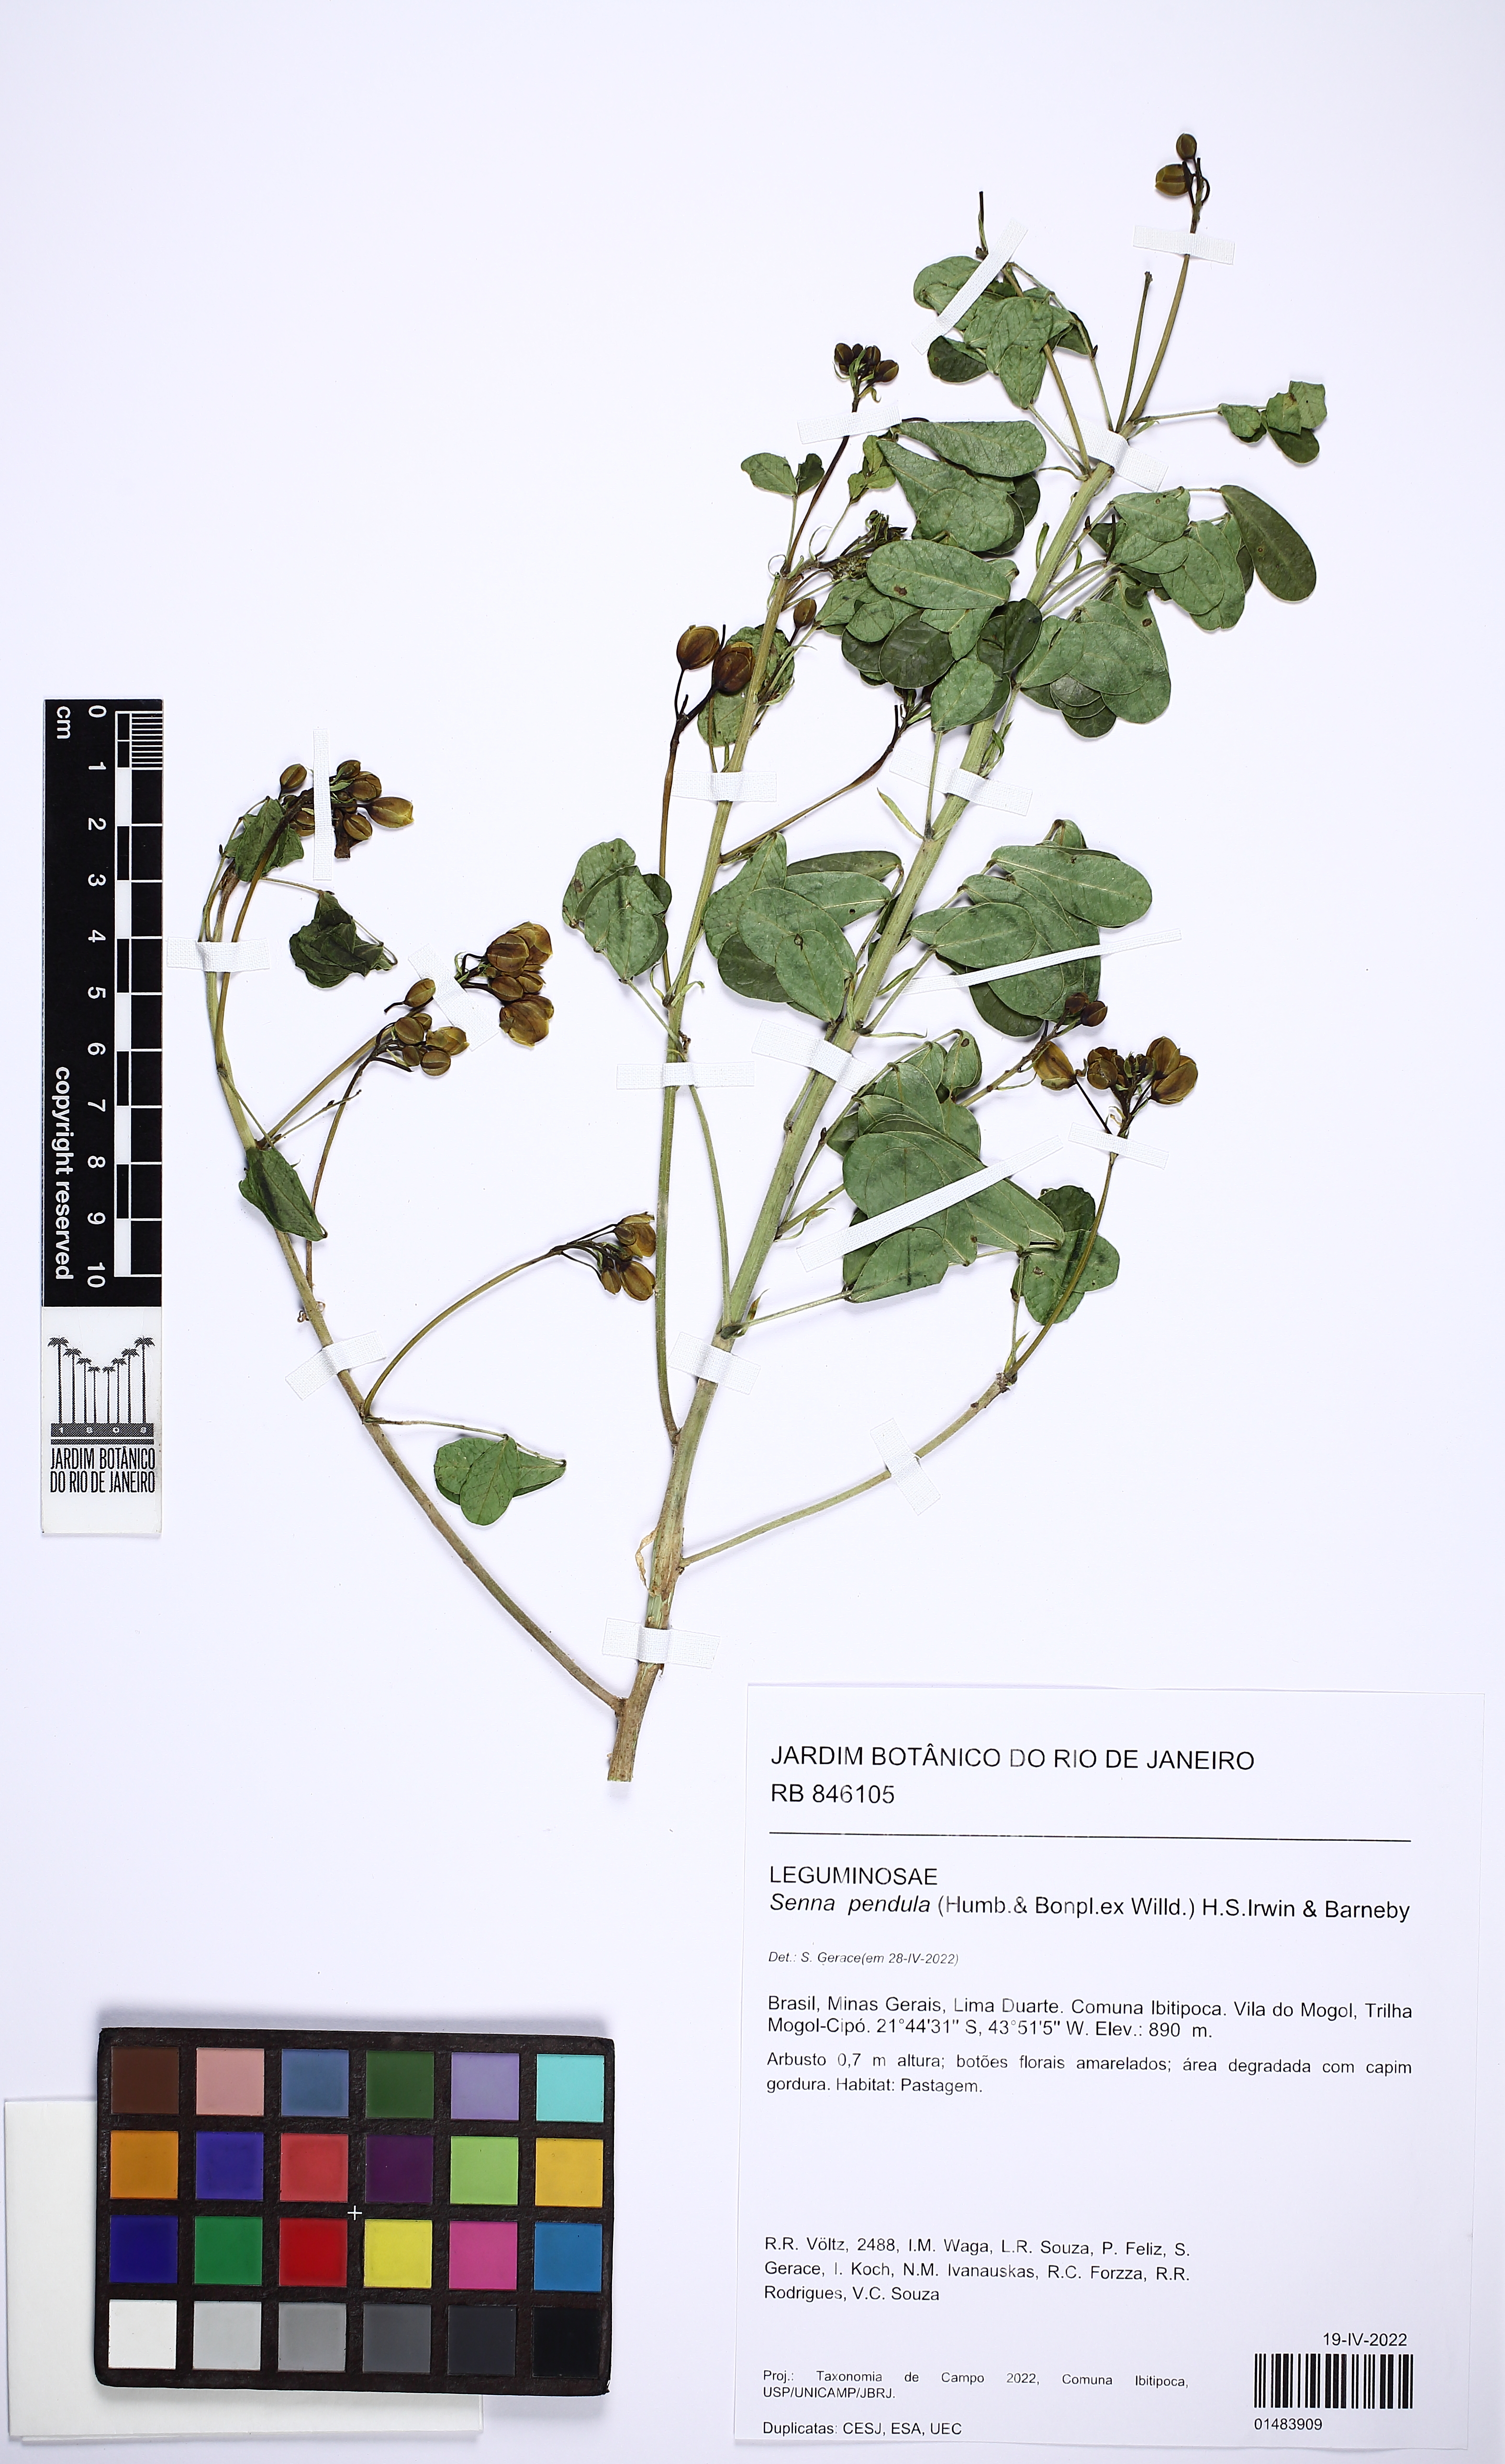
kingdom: Plantae
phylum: Tracheophyta
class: Magnoliopsida
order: Fabales
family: Fabaceae
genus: Senna
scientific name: Senna pendula
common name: Easter cassia
